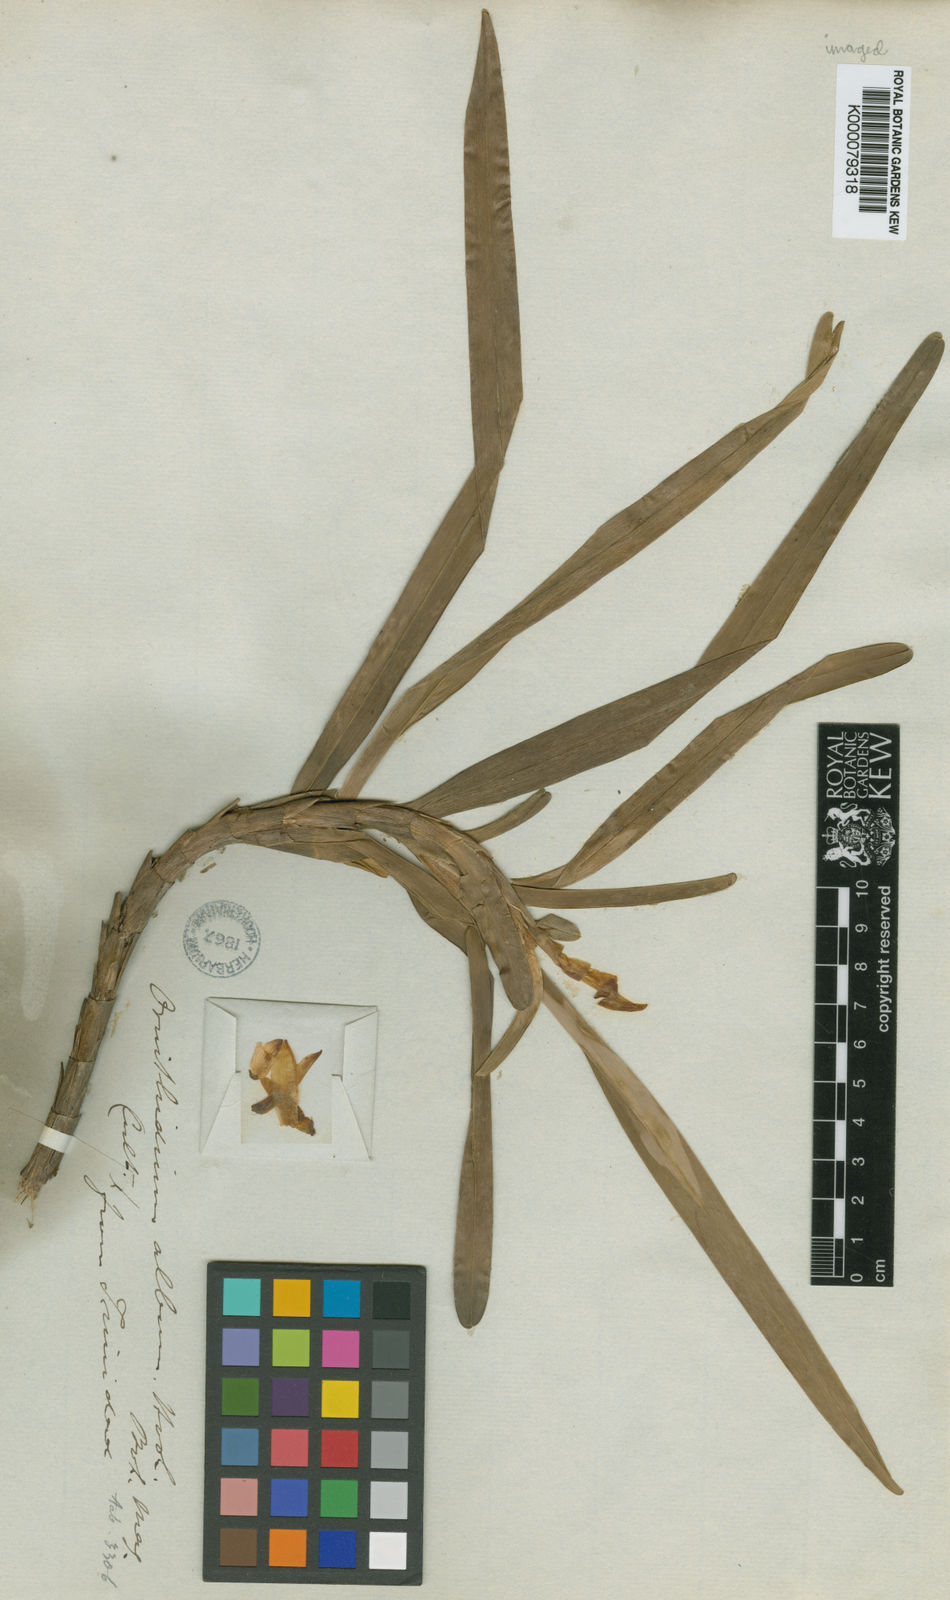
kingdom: Plantae
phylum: Tracheophyta
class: Liliopsida
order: Asparagales
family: Orchidaceae
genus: Maxillaria
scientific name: Maxillaria lutescens
